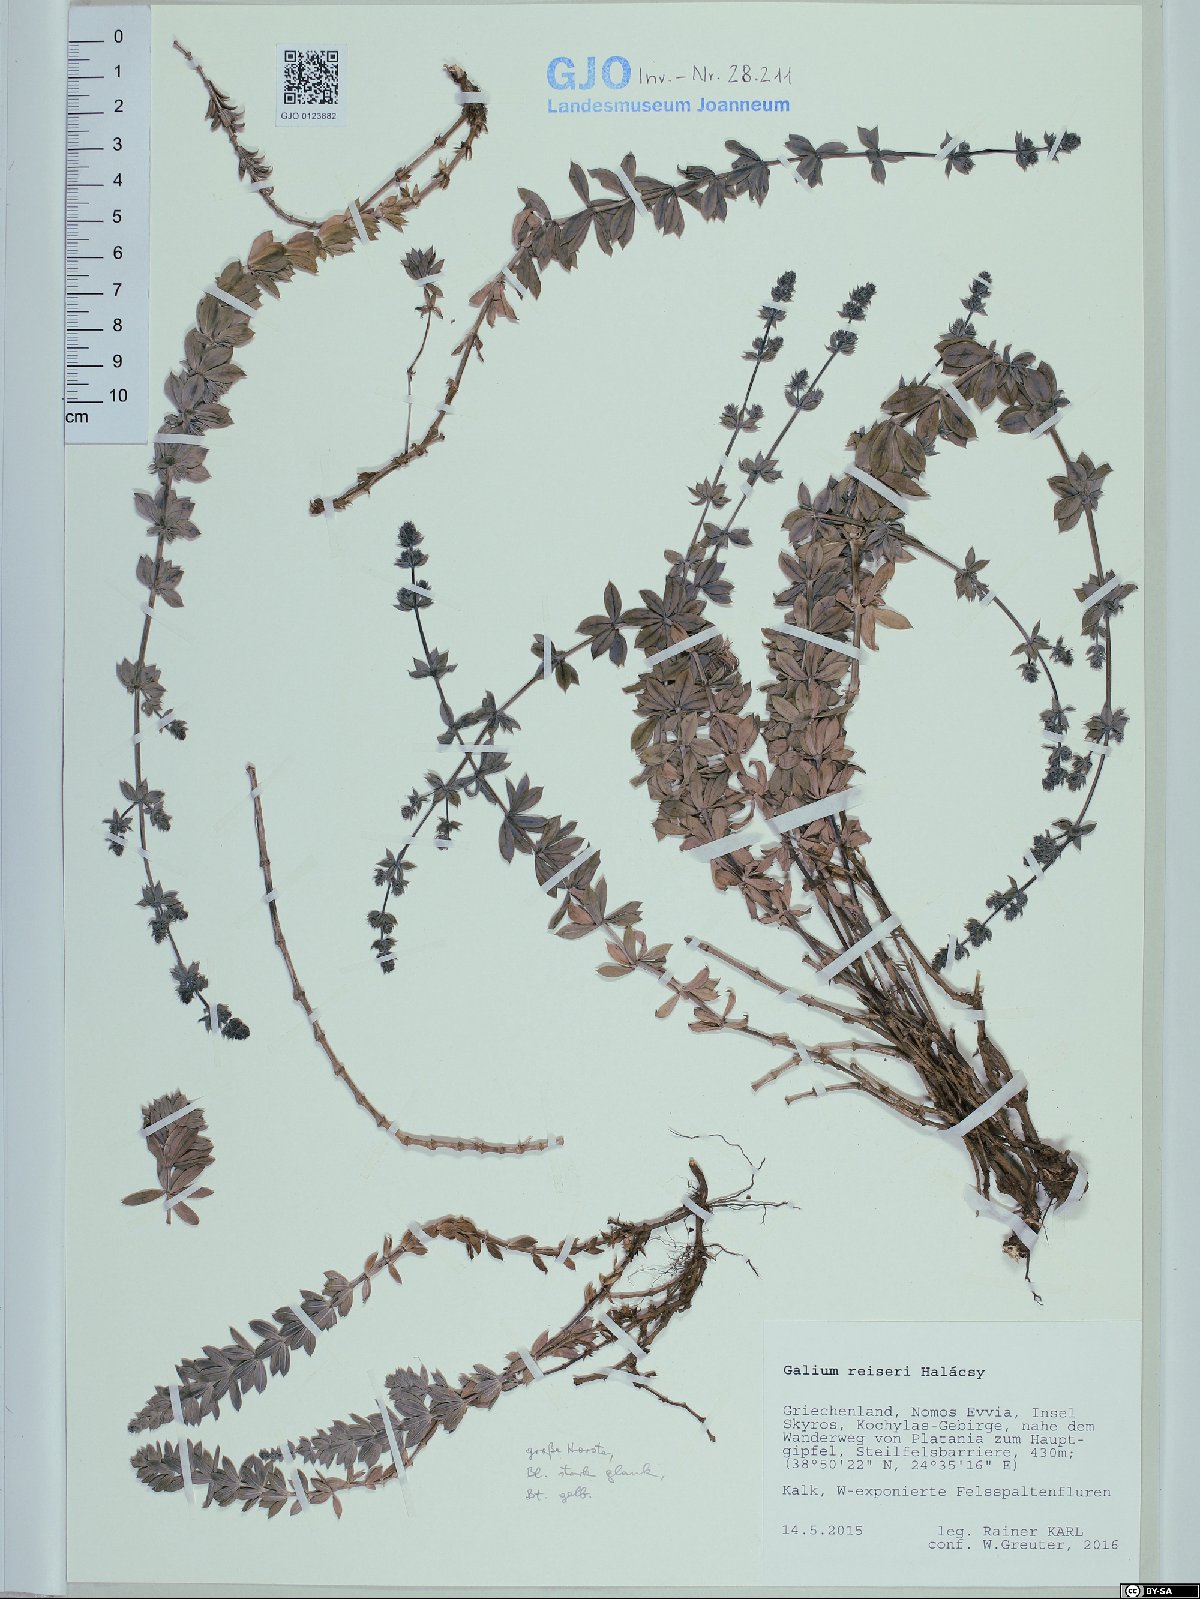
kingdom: Plantae
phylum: Tracheophyta
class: Magnoliopsida
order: Gentianales
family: Rubiaceae
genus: Galium
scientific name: Galium reiseri
